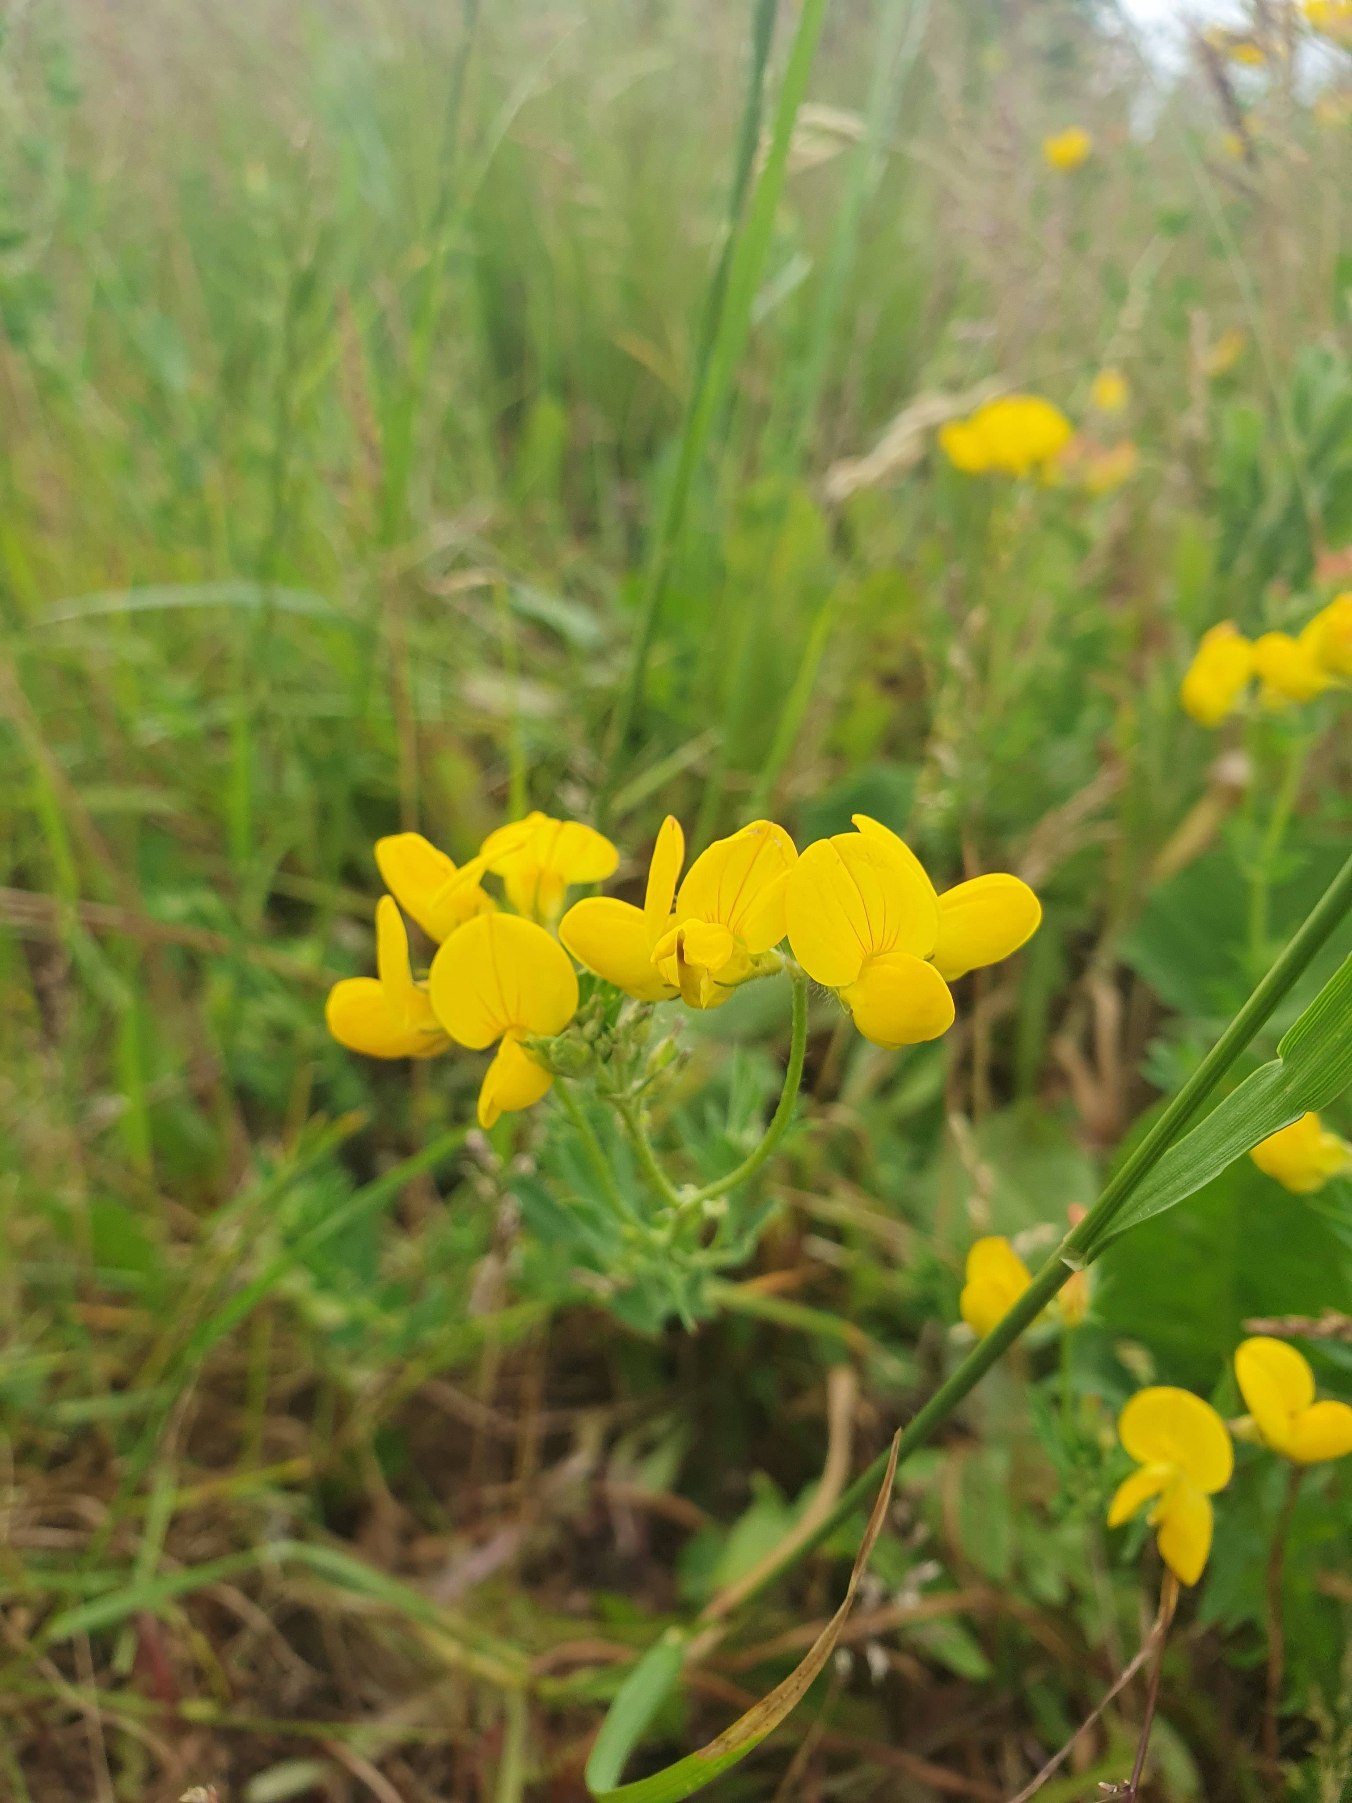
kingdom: Plantae
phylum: Tracheophyta
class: Magnoliopsida
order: Fabales
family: Fabaceae
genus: Lotus
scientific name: Lotus corniculatus
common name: Almindelig kællingetand
